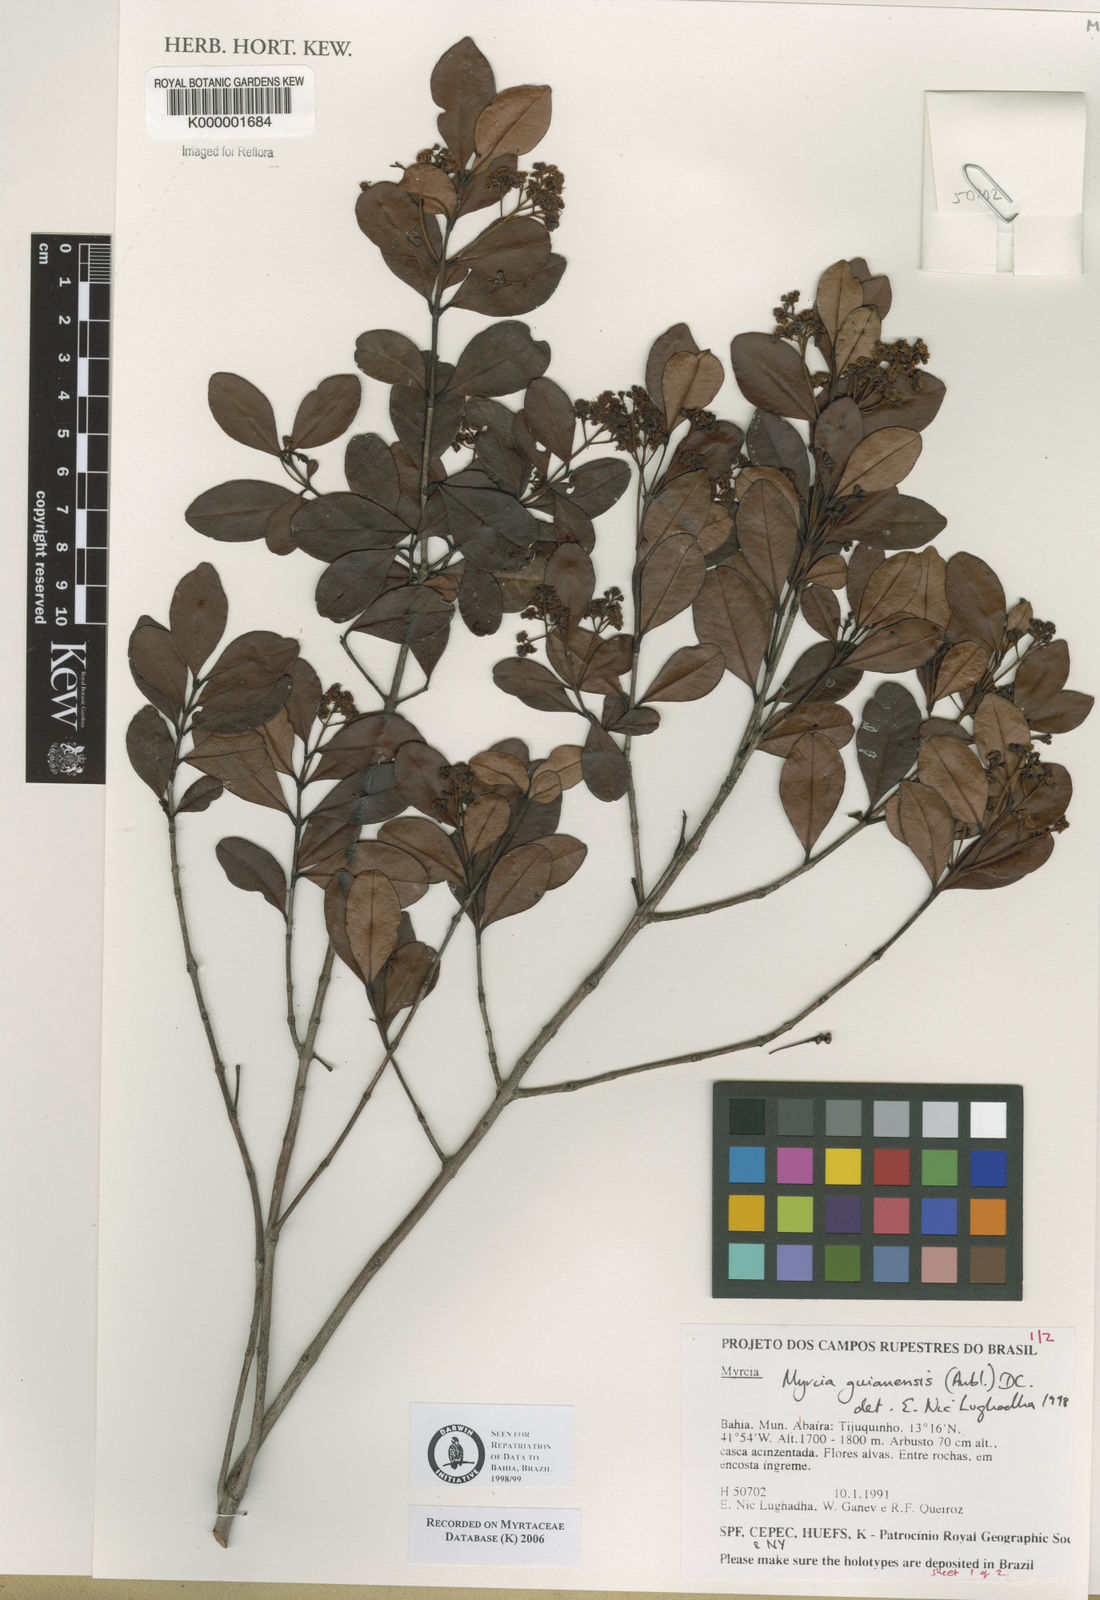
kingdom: Plantae
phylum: Tracheophyta
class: Magnoliopsida
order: Myrtales
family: Myrtaceae
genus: Myrcia
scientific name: Myrcia guianensis
